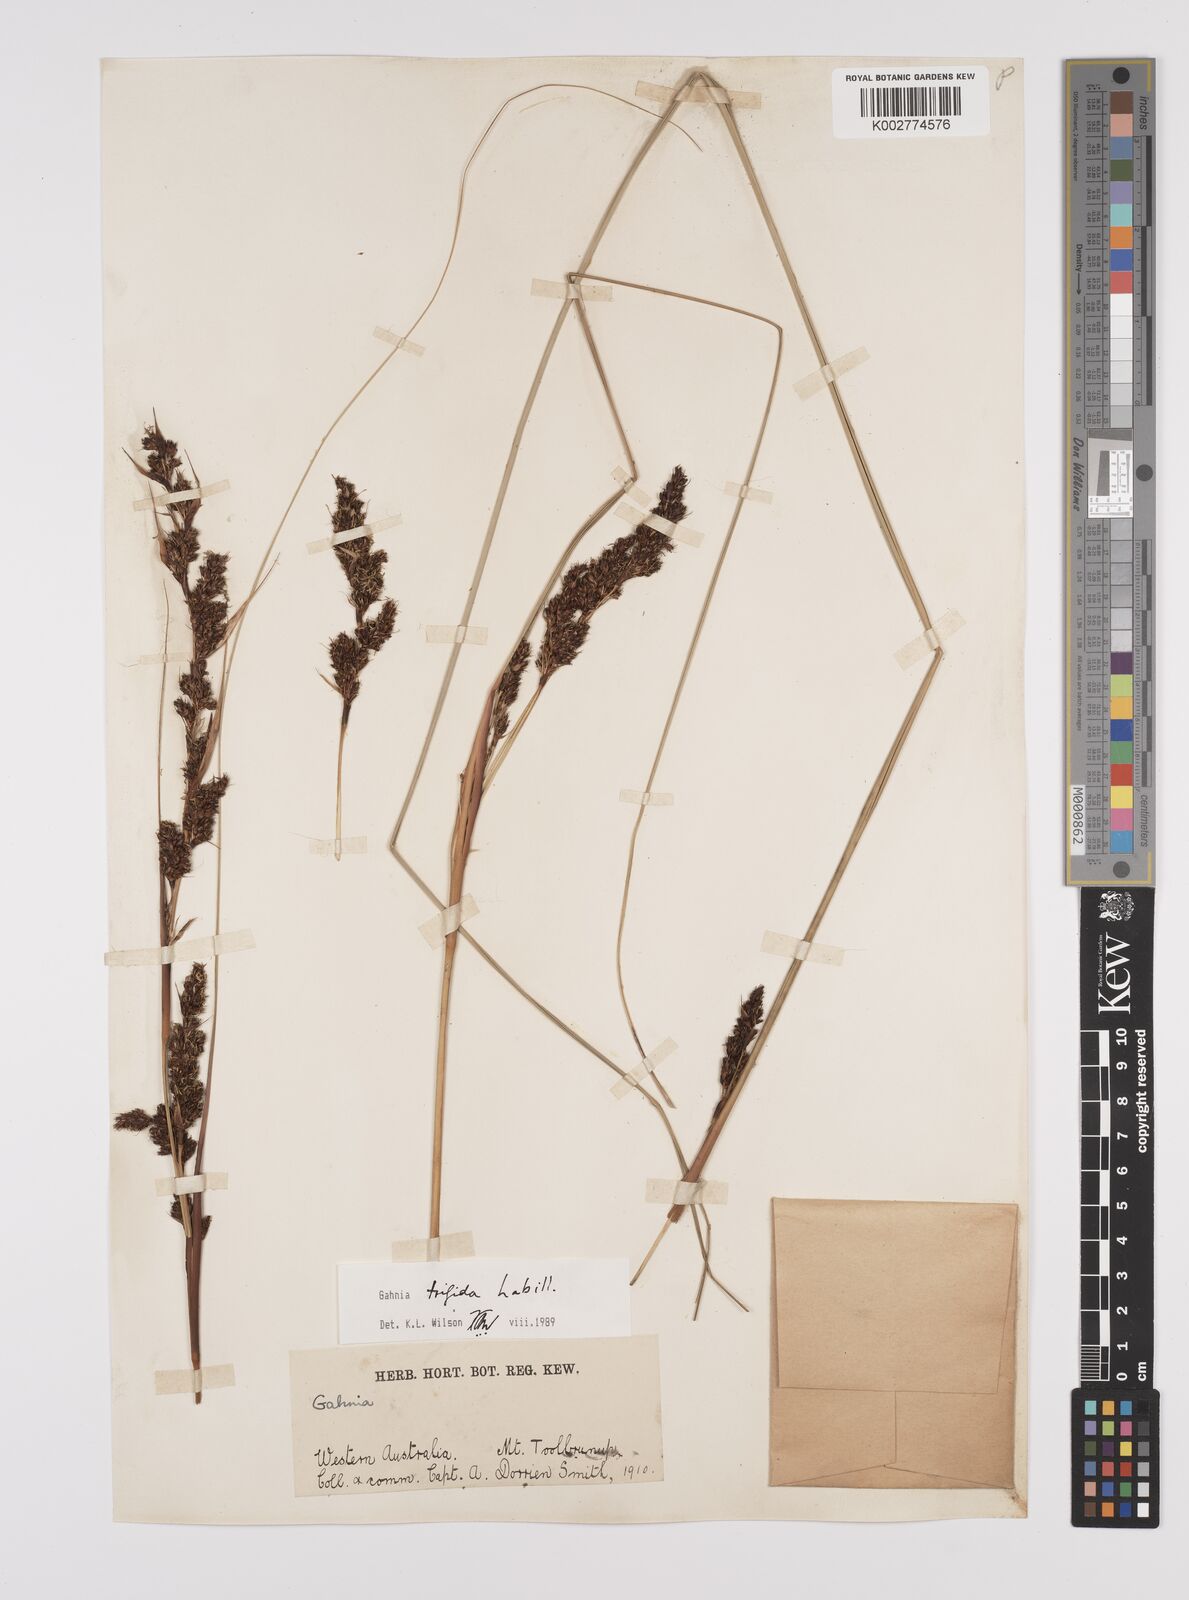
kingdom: Plantae
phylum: Tracheophyta
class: Liliopsida
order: Poales
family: Cyperaceae
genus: Gahnia
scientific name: Gahnia trifida
